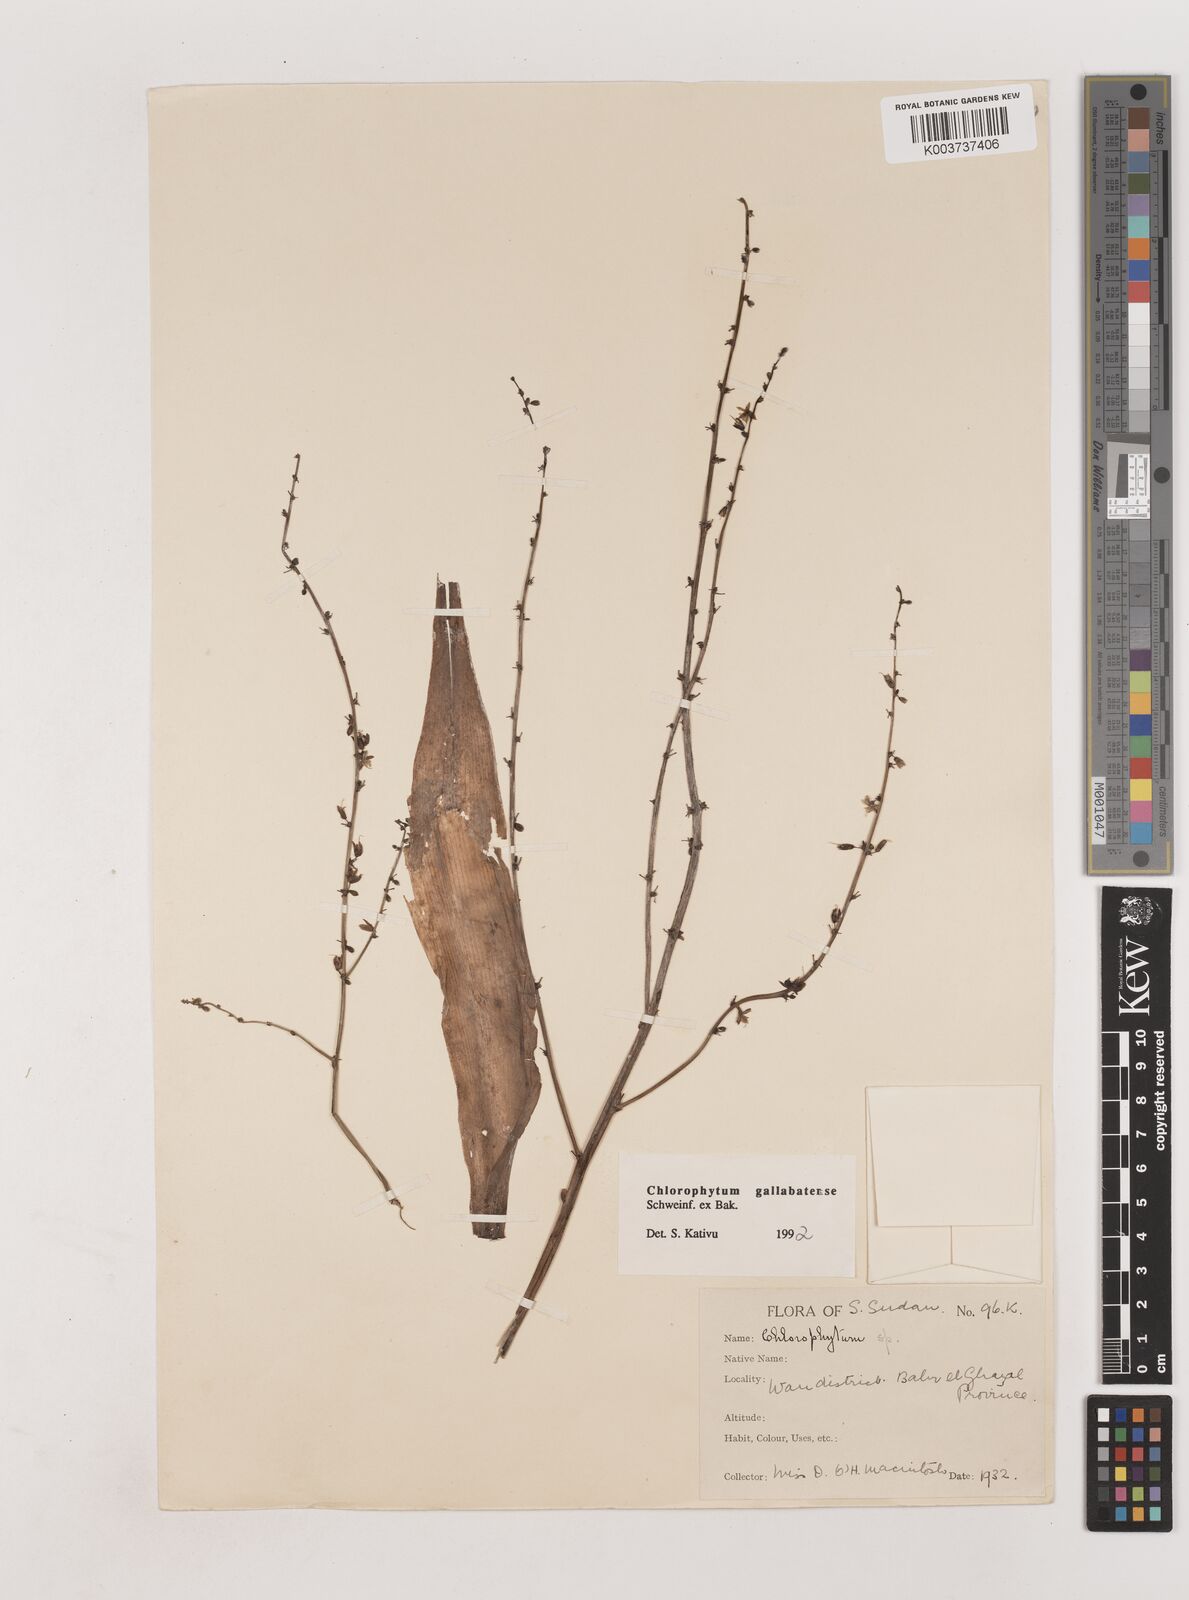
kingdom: Plantae
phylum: Tracheophyta
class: Liliopsida
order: Asparagales
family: Asparagaceae
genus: Chlorophytum
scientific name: Chlorophytum gallabatense
